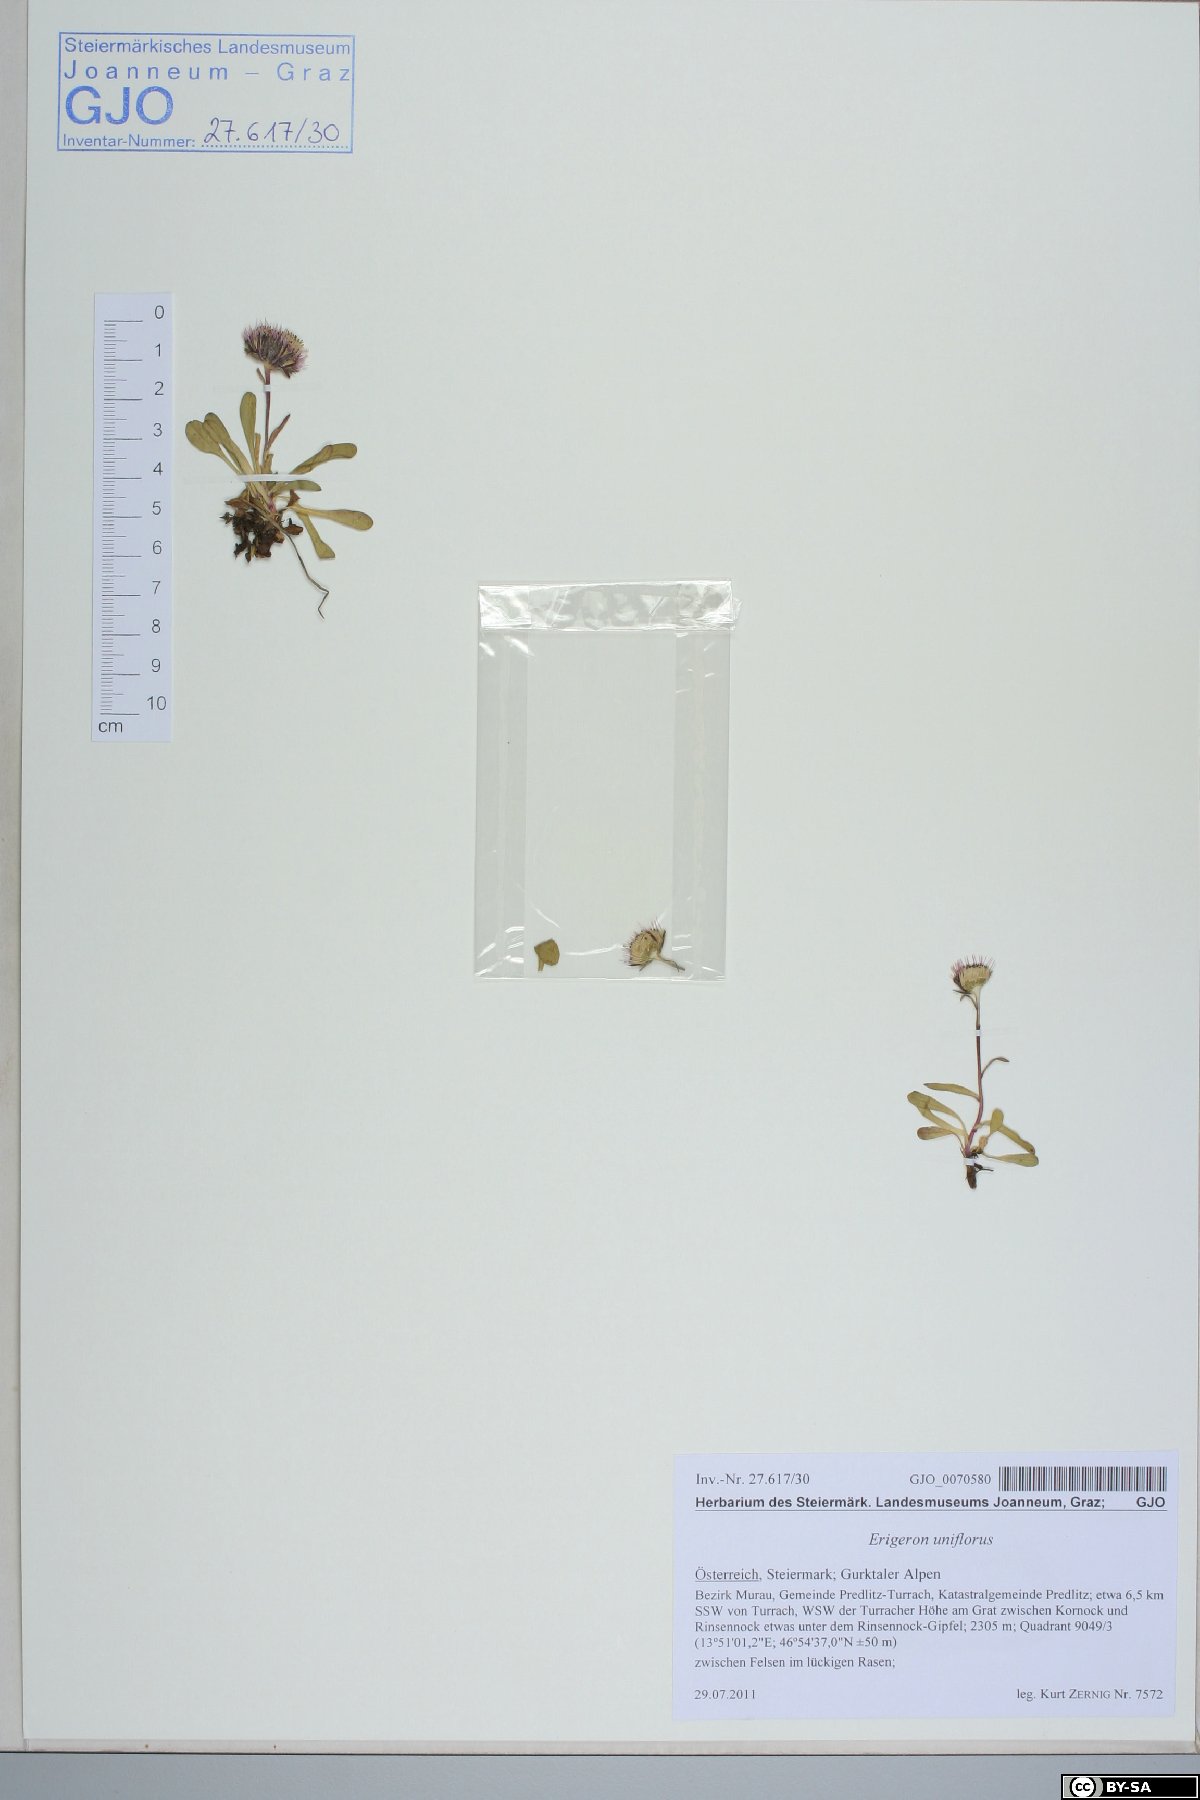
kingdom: Plantae
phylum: Tracheophyta
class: Magnoliopsida
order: Asterales
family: Asteraceae
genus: Erigeron
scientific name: Erigeron uniflorus
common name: Northern daisy
